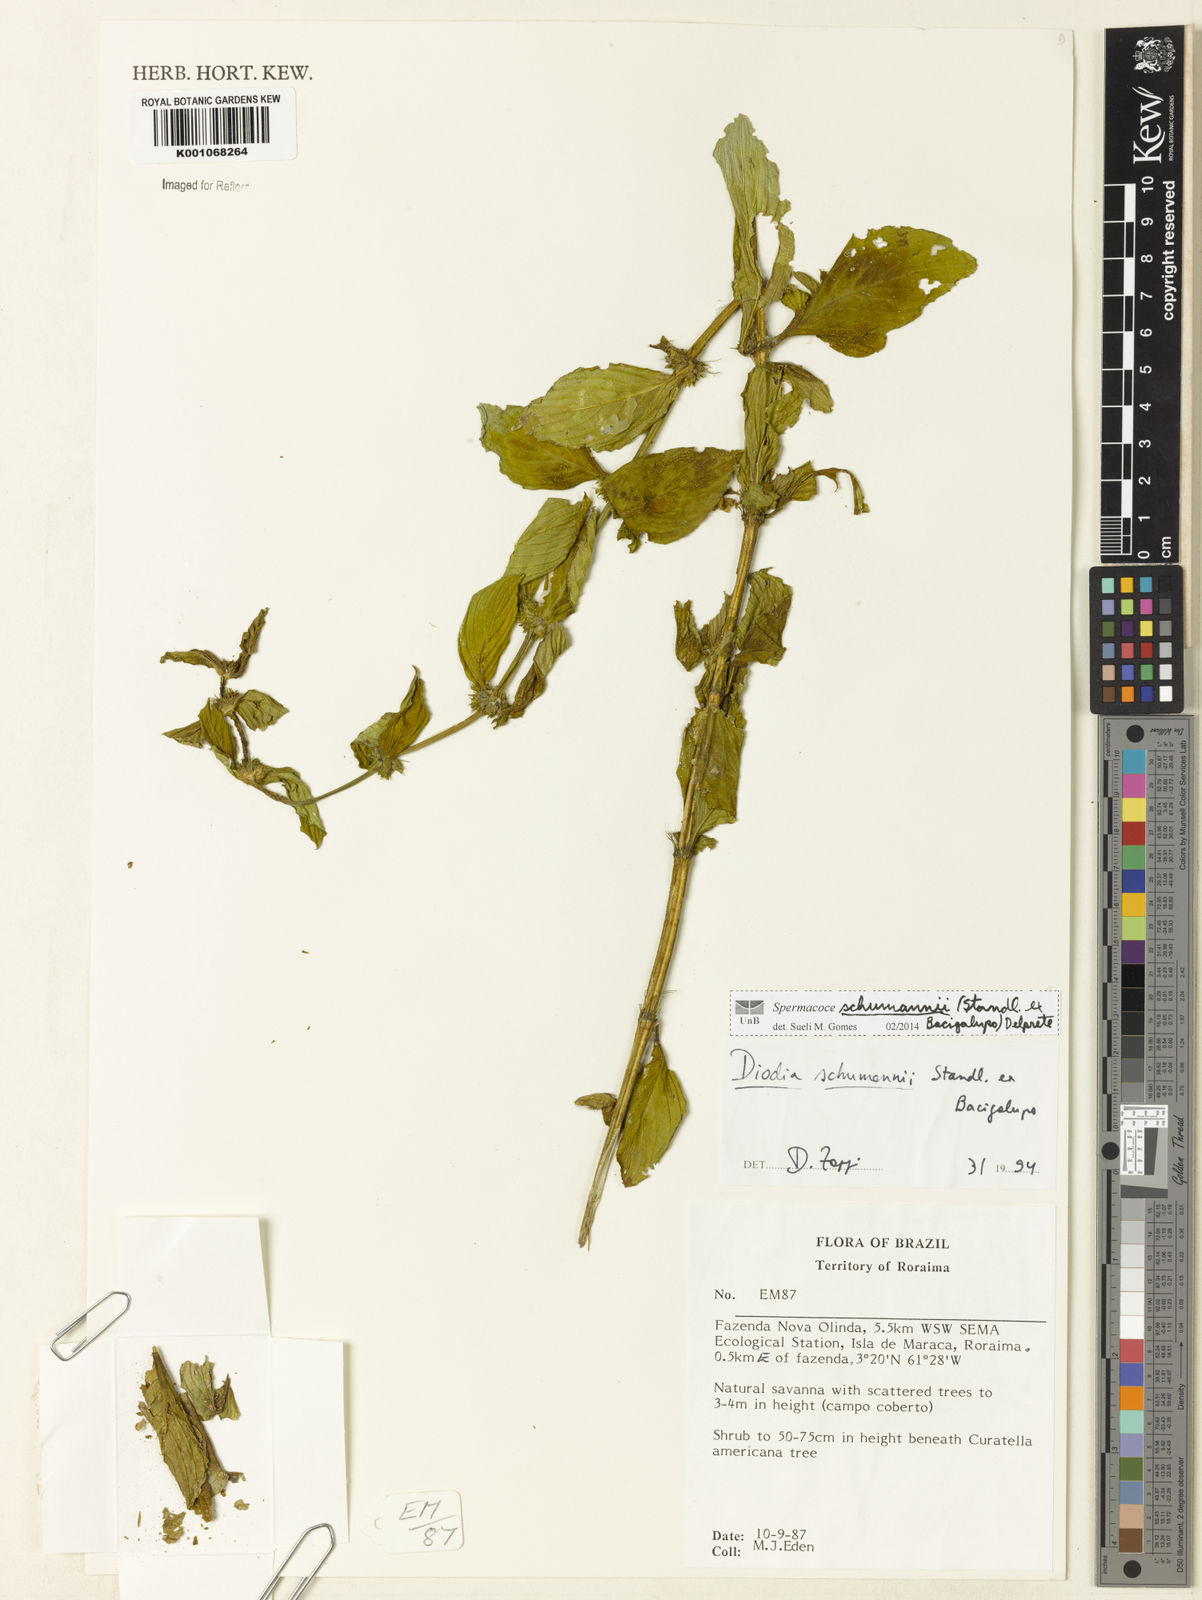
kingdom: Plantae
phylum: Tracheophyta
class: Magnoliopsida
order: Gentianales
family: Rubiaceae
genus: Spermacoce
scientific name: Spermacoce schumannii
